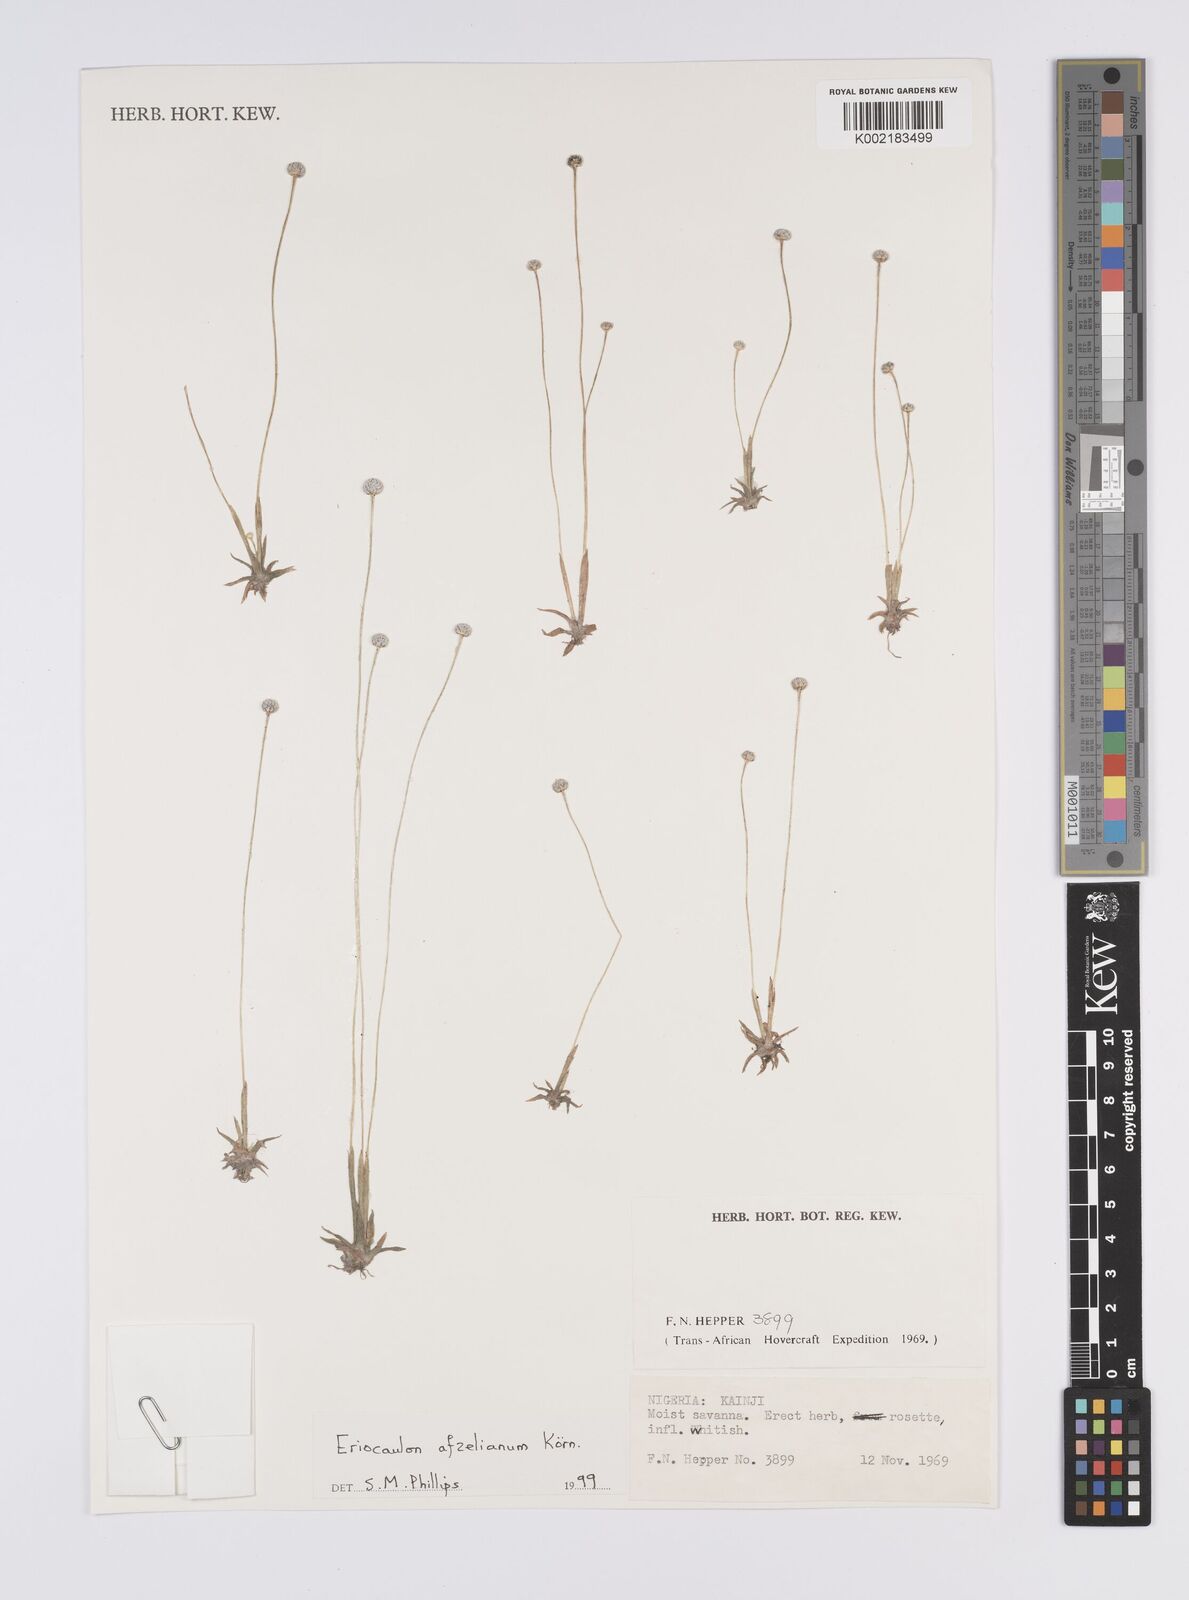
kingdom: Plantae
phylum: Tracheophyta
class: Liliopsida
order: Poales
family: Eriocaulaceae
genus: Eriocaulon
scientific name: Eriocaulon afzelianum
